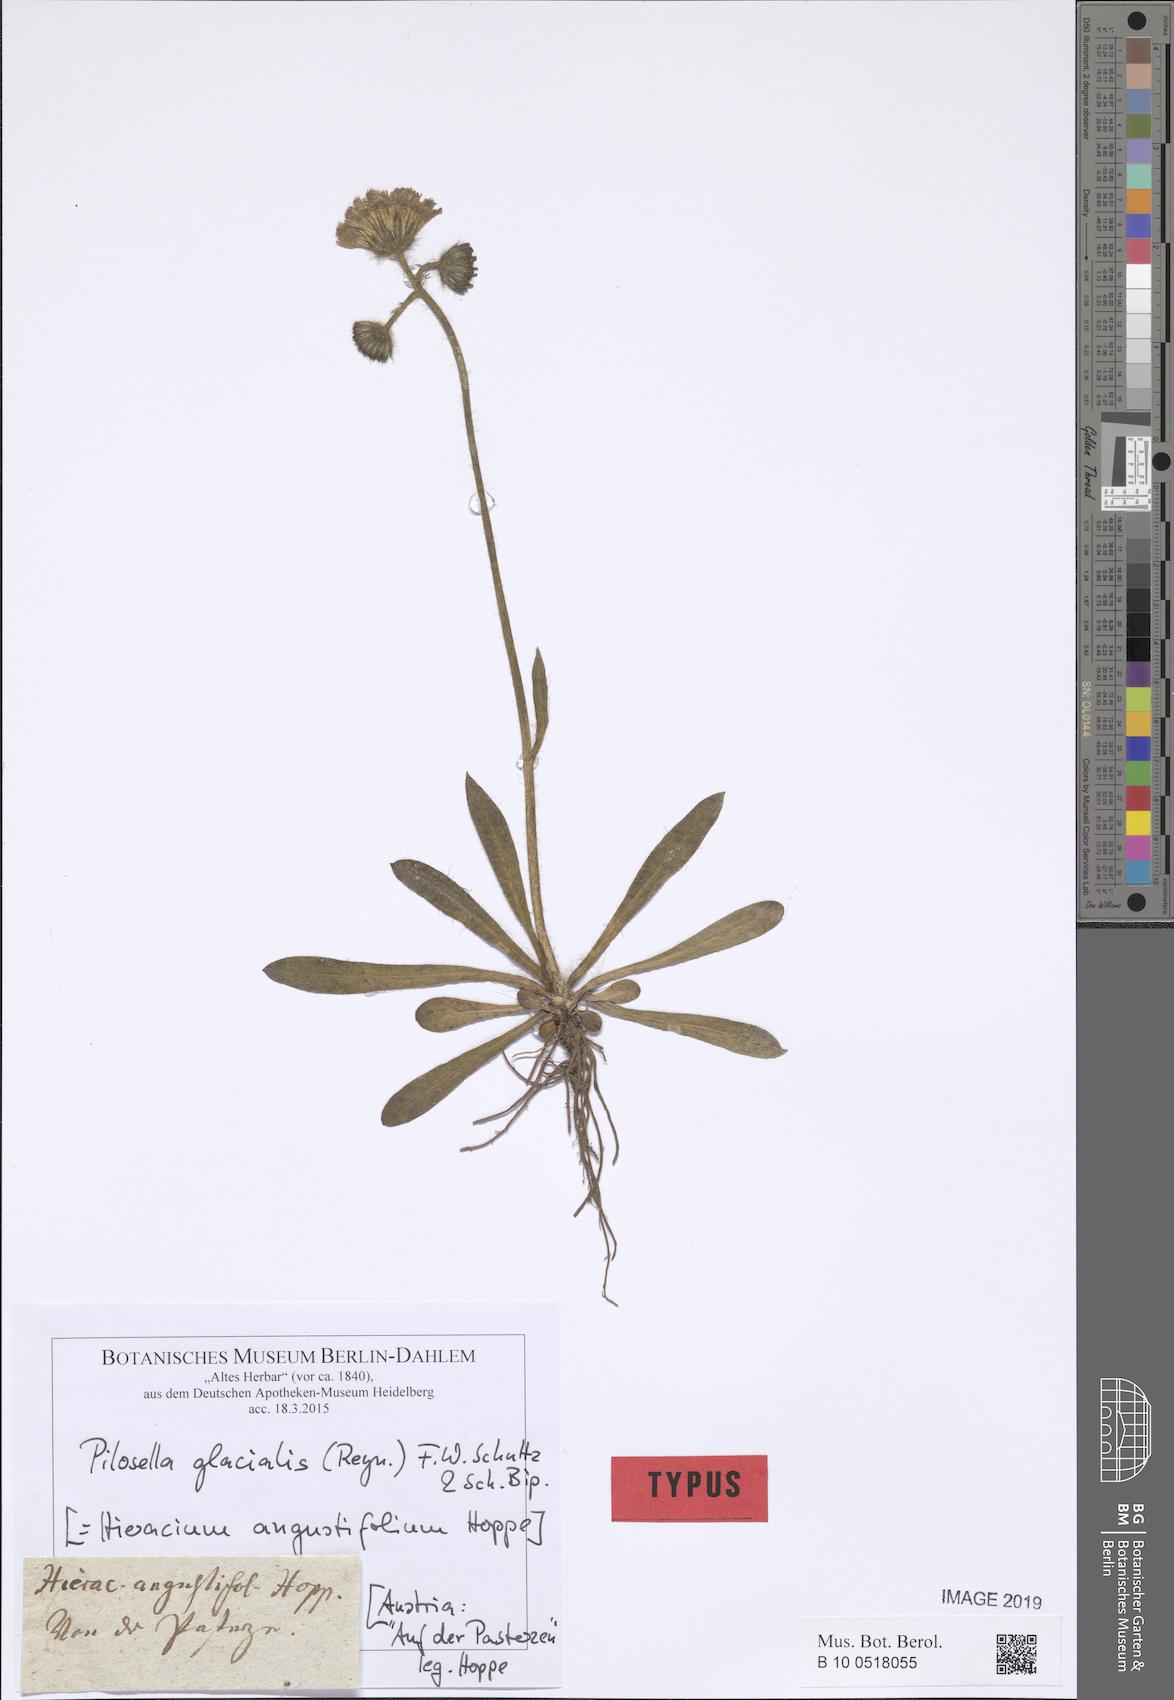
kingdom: Plantae
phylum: Tracheophyta
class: Magnoliopsida
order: Asterales
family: Asteraceae
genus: Pilosella
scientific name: Pilosella glacialis
